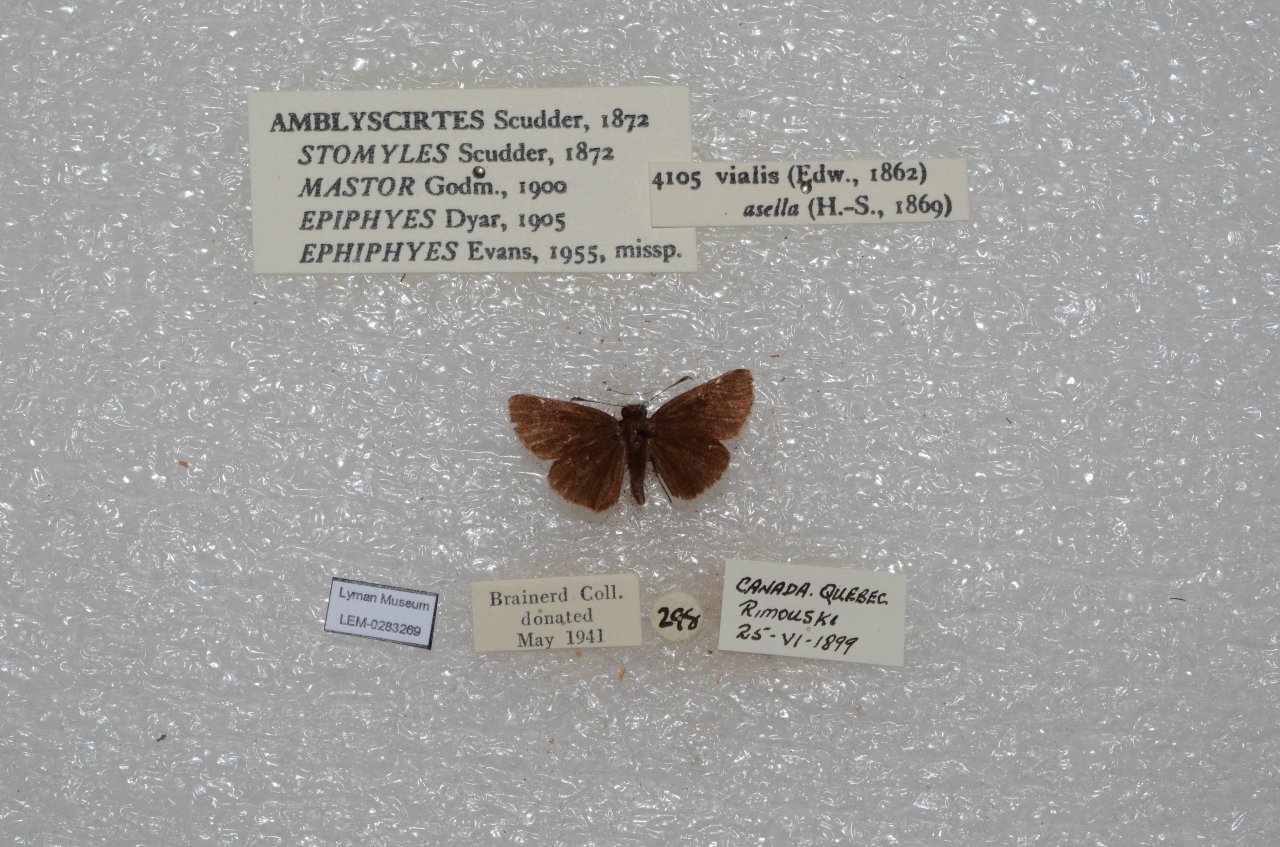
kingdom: Animalia
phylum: Arthropoda
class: Insecta
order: Lepidoptera
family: Hesperiidae
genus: Mastor
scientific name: Mastor vialis
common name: Common Roadside-Skipper
